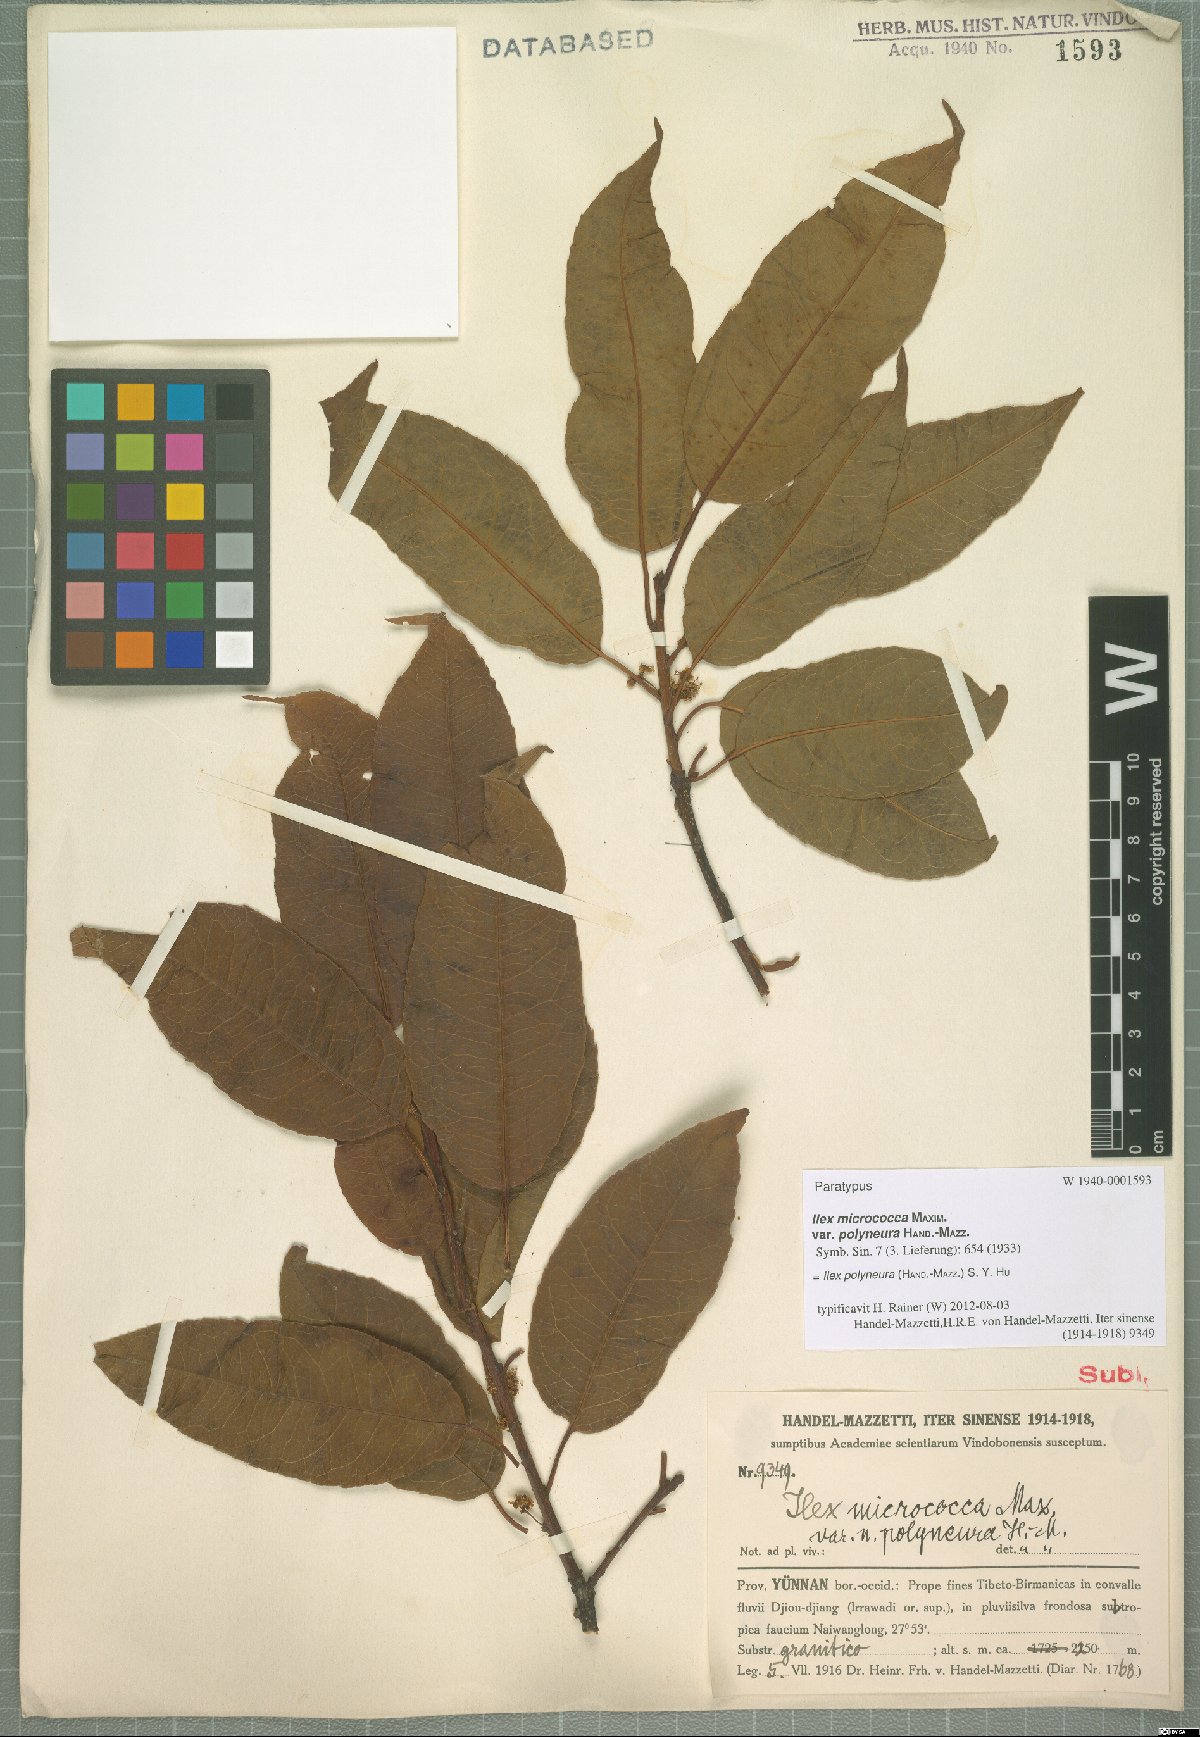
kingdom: Plantae
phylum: Tracheophyta
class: Magnoliopsida
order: Aquifoliales
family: Aquifoliaceae
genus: Ilex
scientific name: Ilex micrococca
